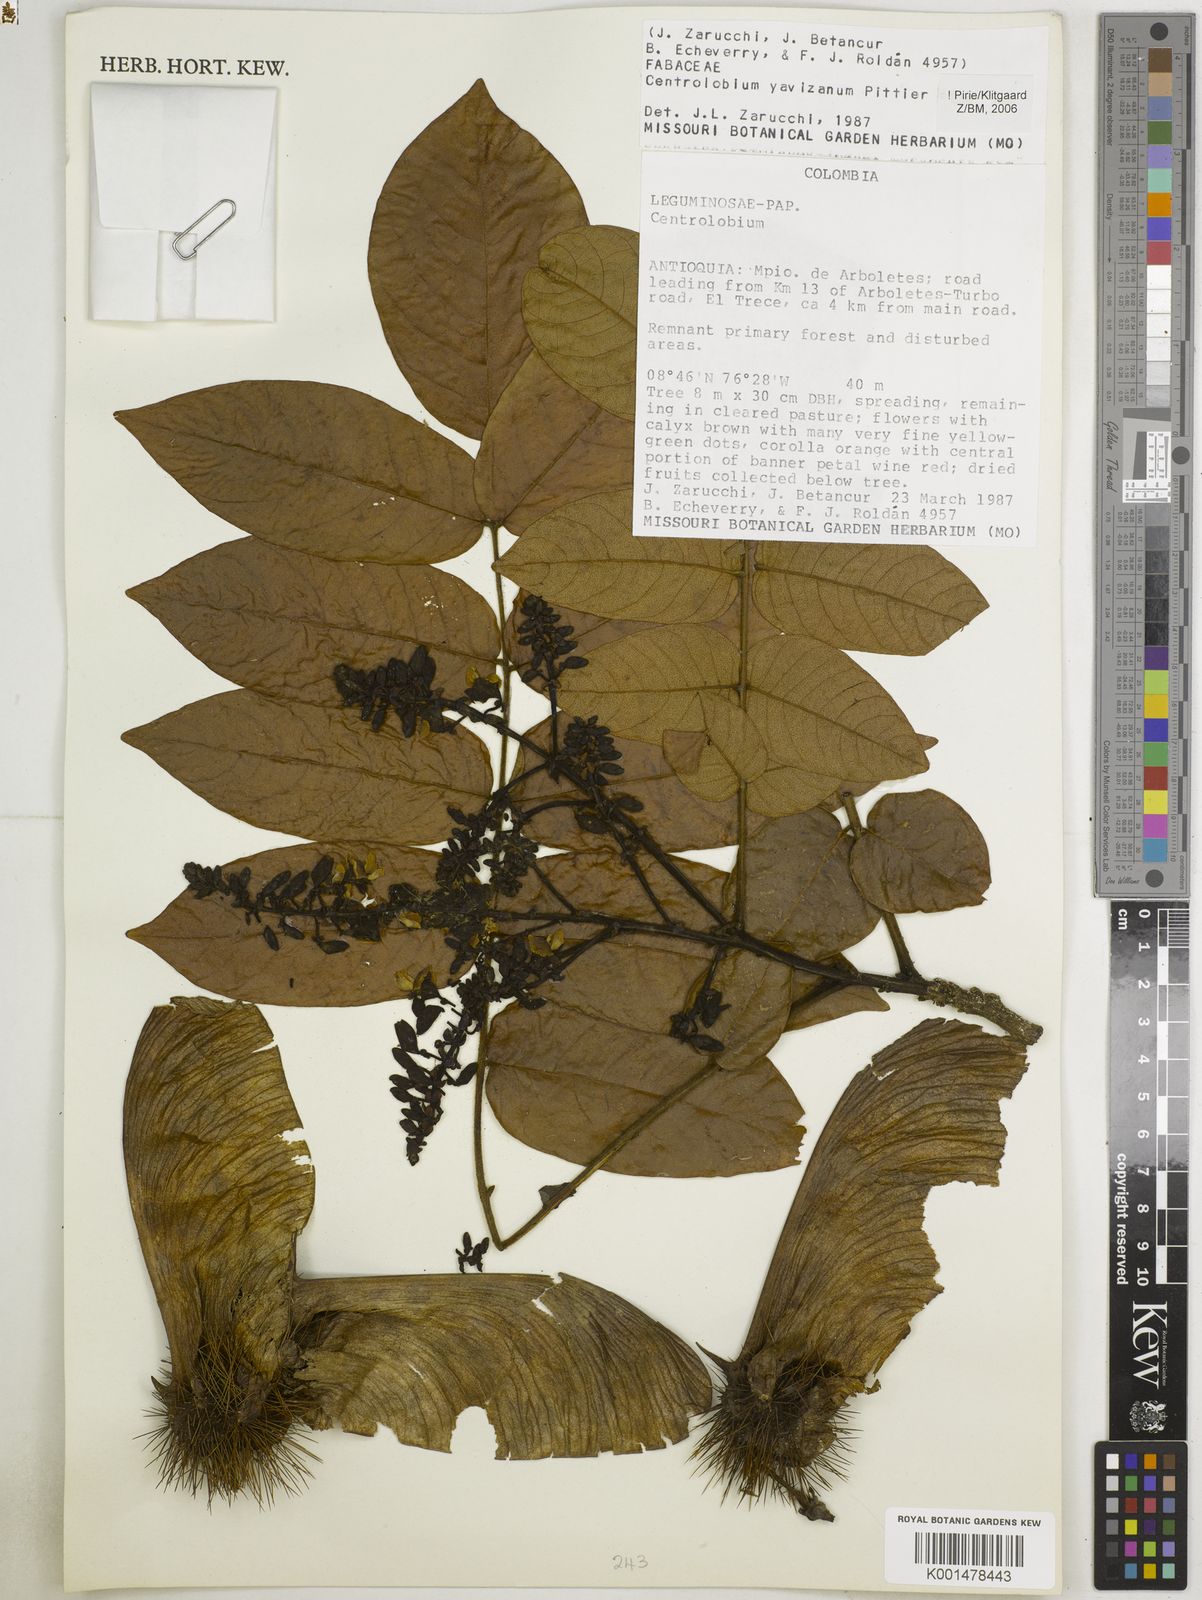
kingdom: Plantae
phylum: Tracheophyta
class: Magnoliopsida
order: Fabales
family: Fabaceae
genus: Centrolobium
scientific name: Centrolobium yavizanum
